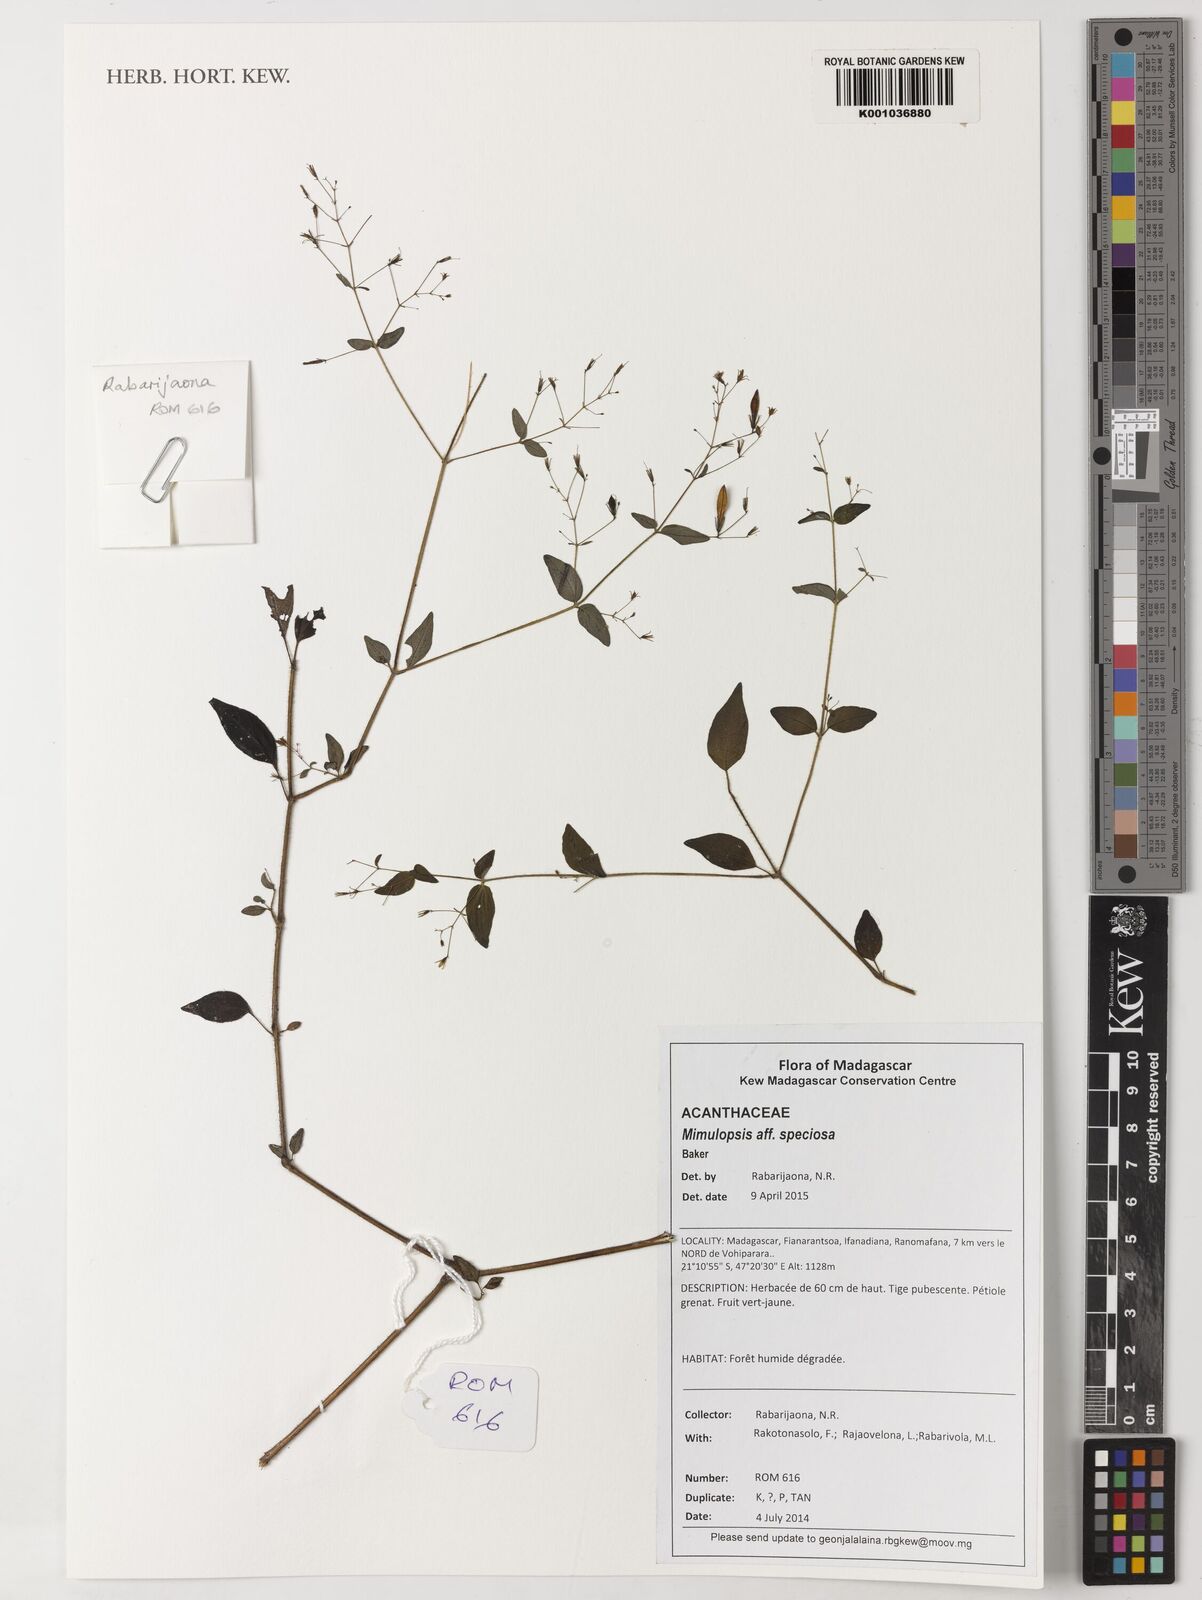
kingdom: Plantae
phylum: Tracheophyta
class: Magnoliopsida
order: Lamiales
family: Acanthaceae
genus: Isoglossa
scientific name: Isoglossa gracillima
